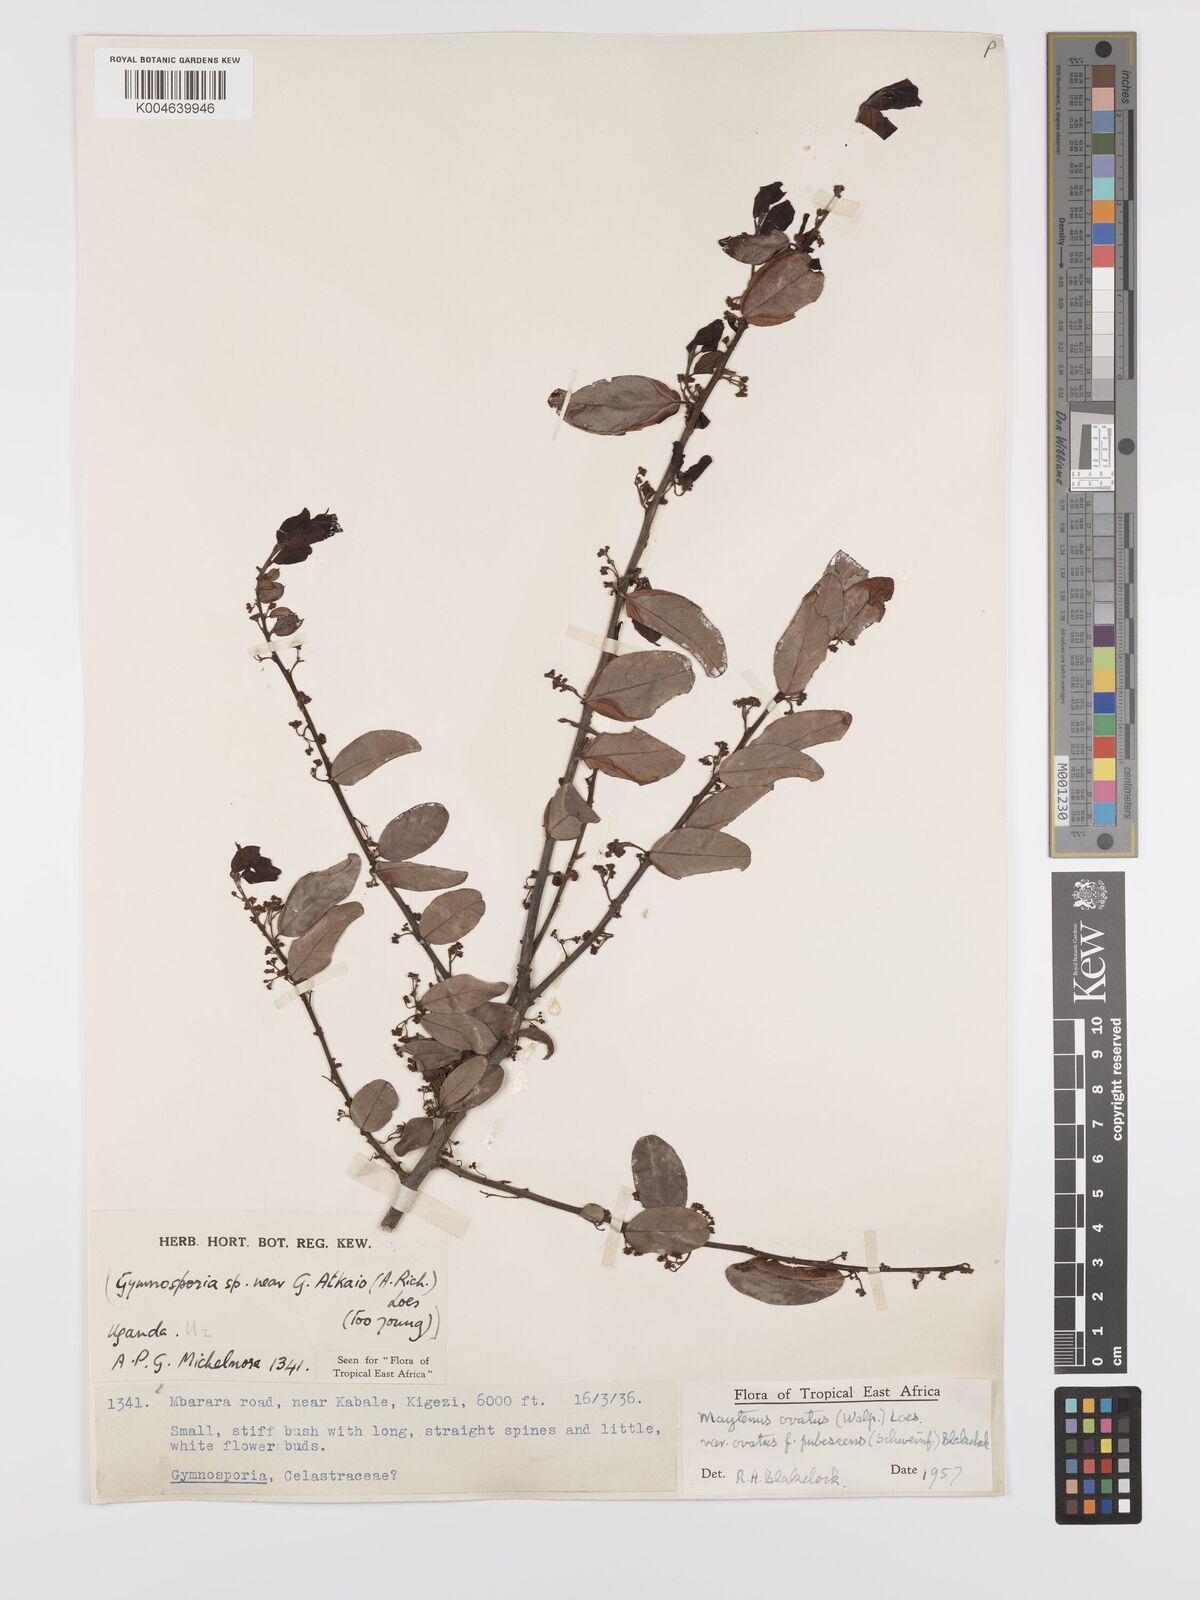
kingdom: Plantae
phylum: Tracheophyta
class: Magnoliopsida
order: Celastrales
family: Celastraceae
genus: Gymnosporia
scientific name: Gymnosporia
